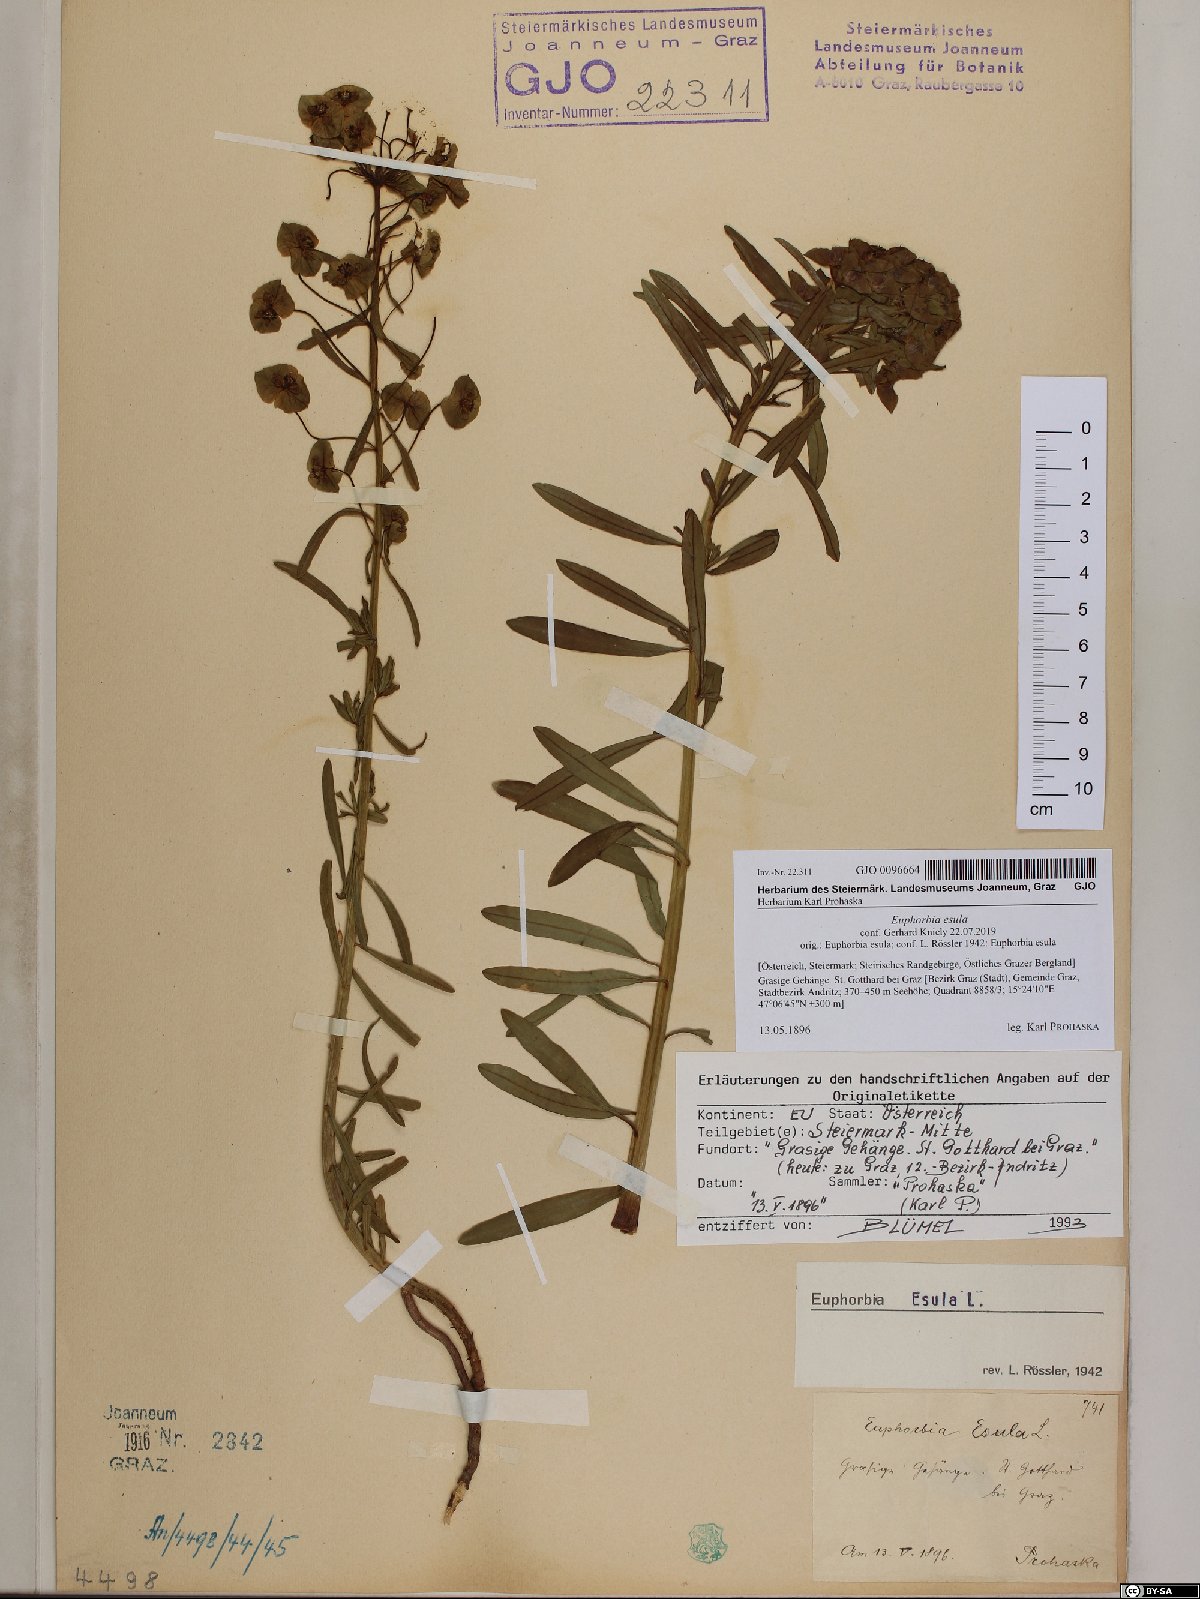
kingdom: Plantae
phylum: Tracheophyta
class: Magnoliopsida
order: Malpighiales
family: Euphorbiaceae
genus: Euphorbia
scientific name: Euphorbia esula
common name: Leafy spurge
